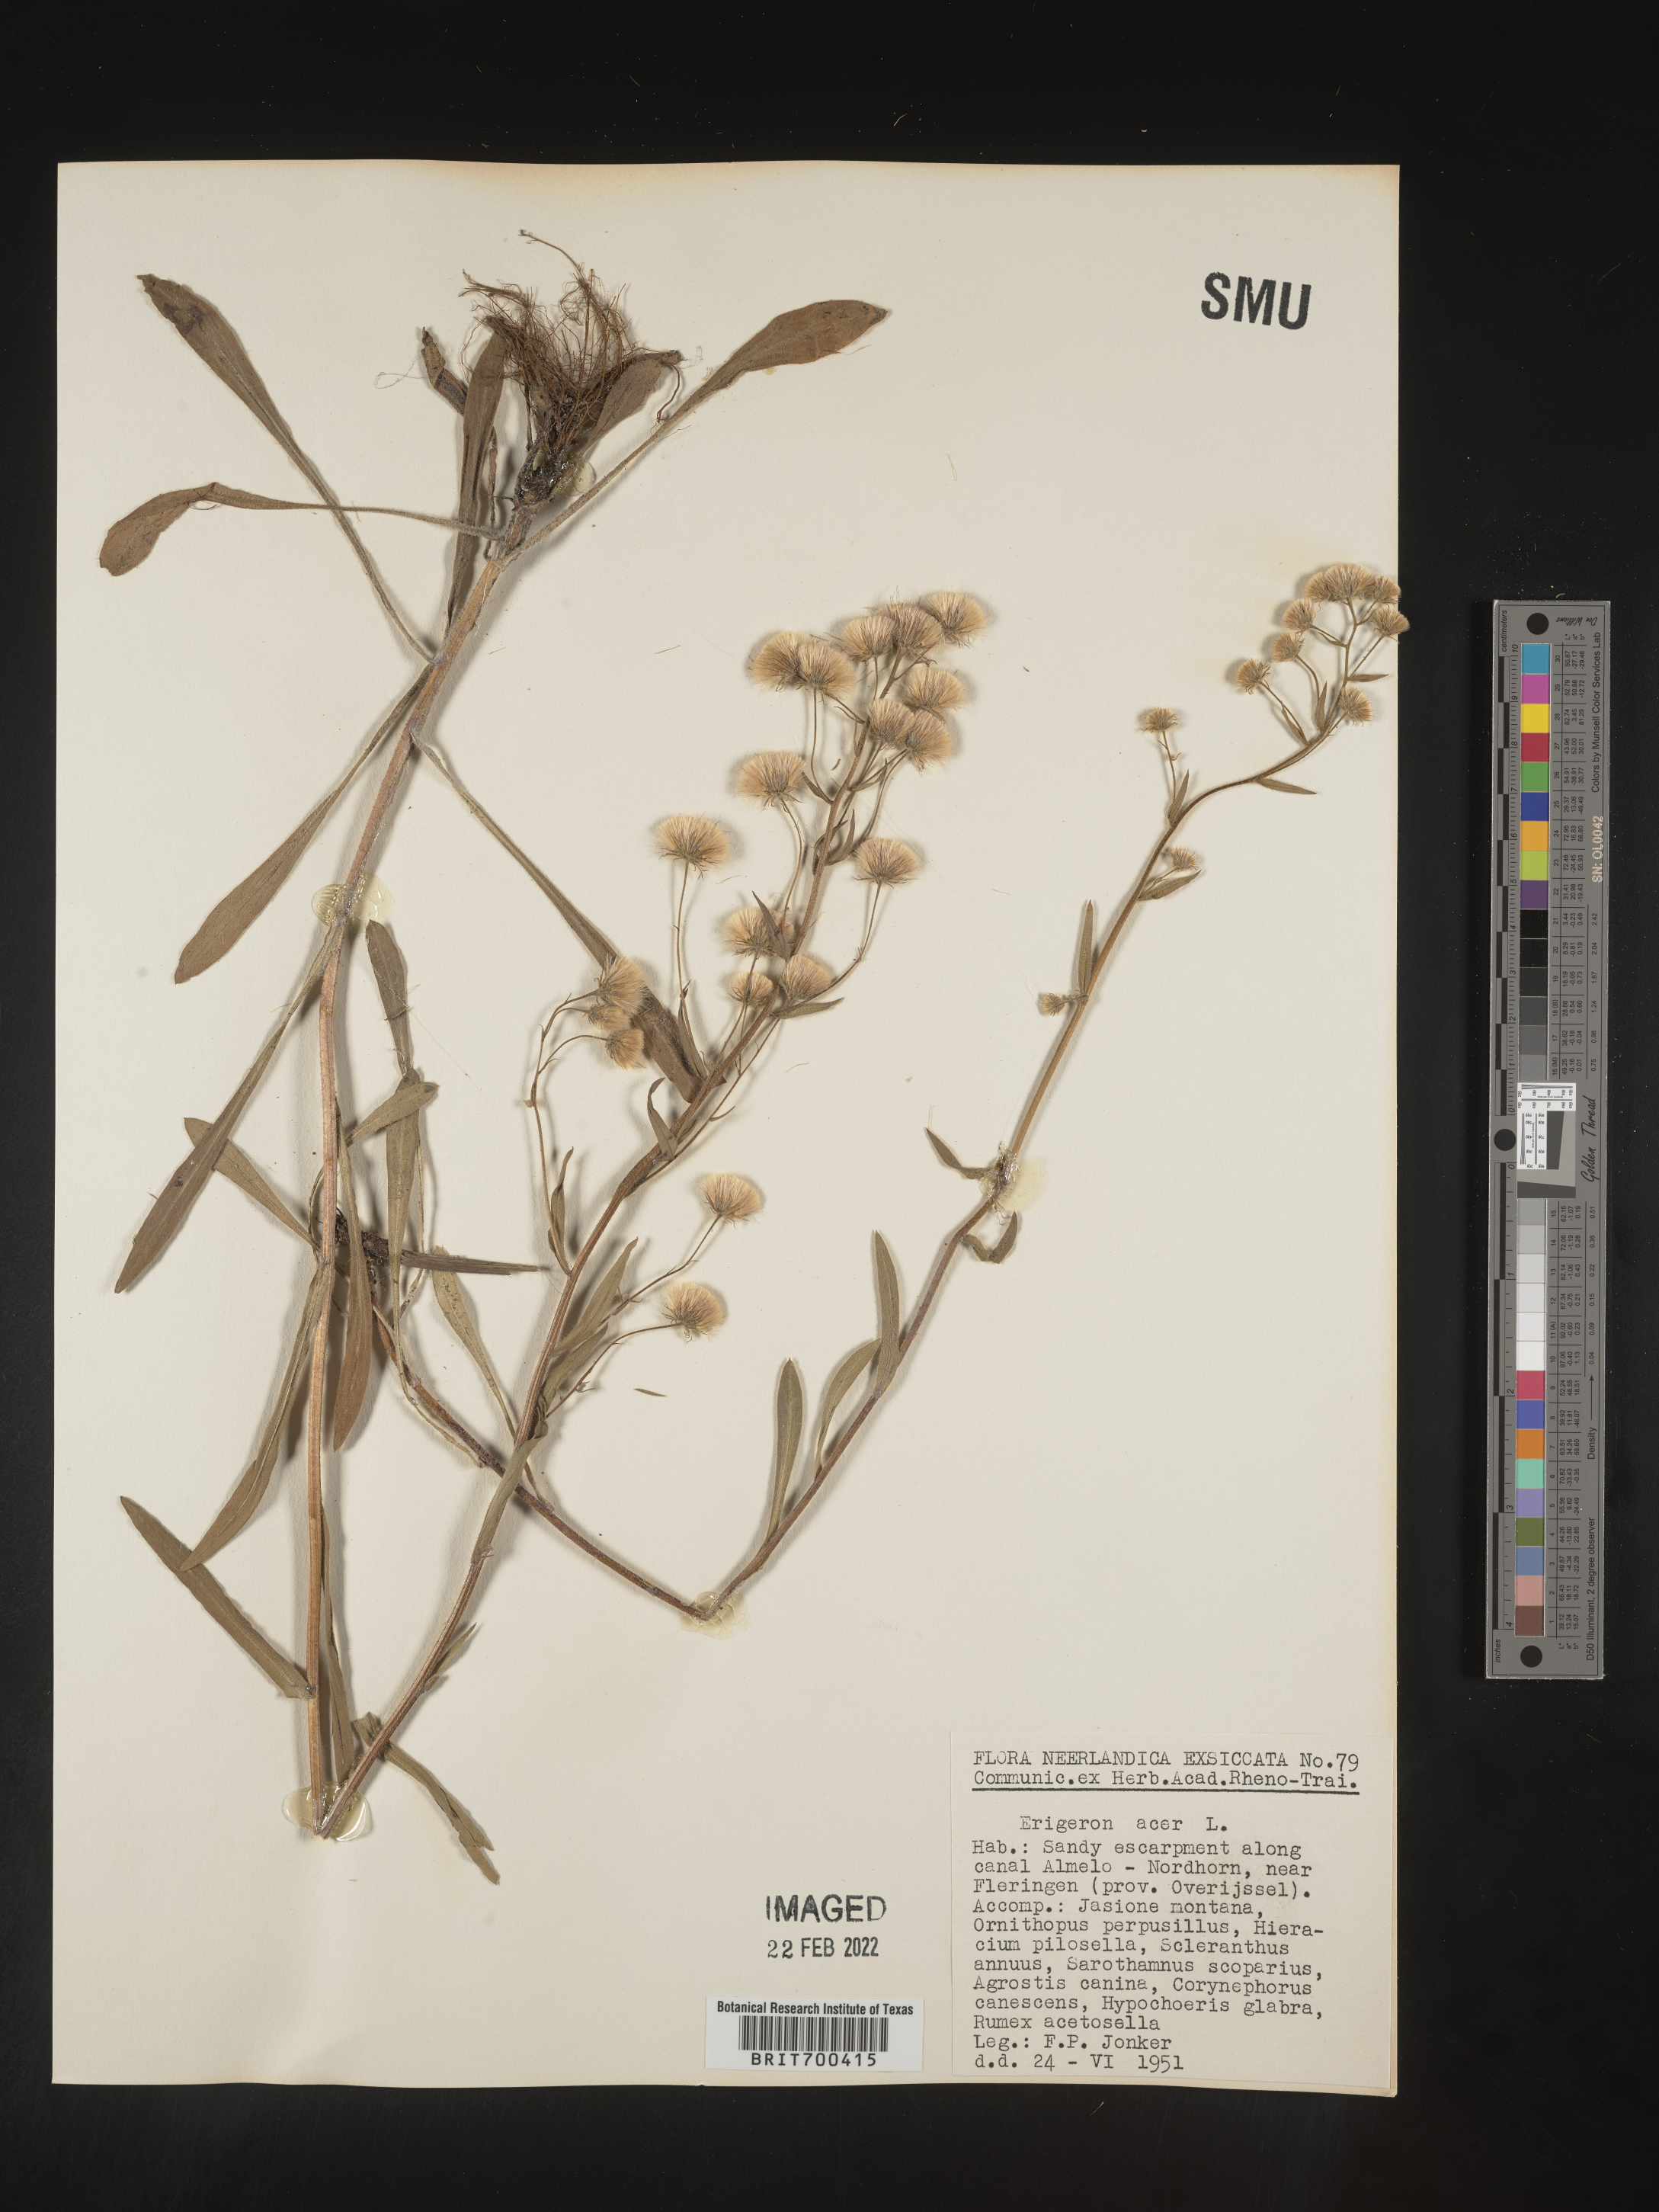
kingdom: Plantae
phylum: Tracheophyta
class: Magnoliopsida
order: Asterales
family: Asteraceae
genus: Erigeron
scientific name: Erigeron
